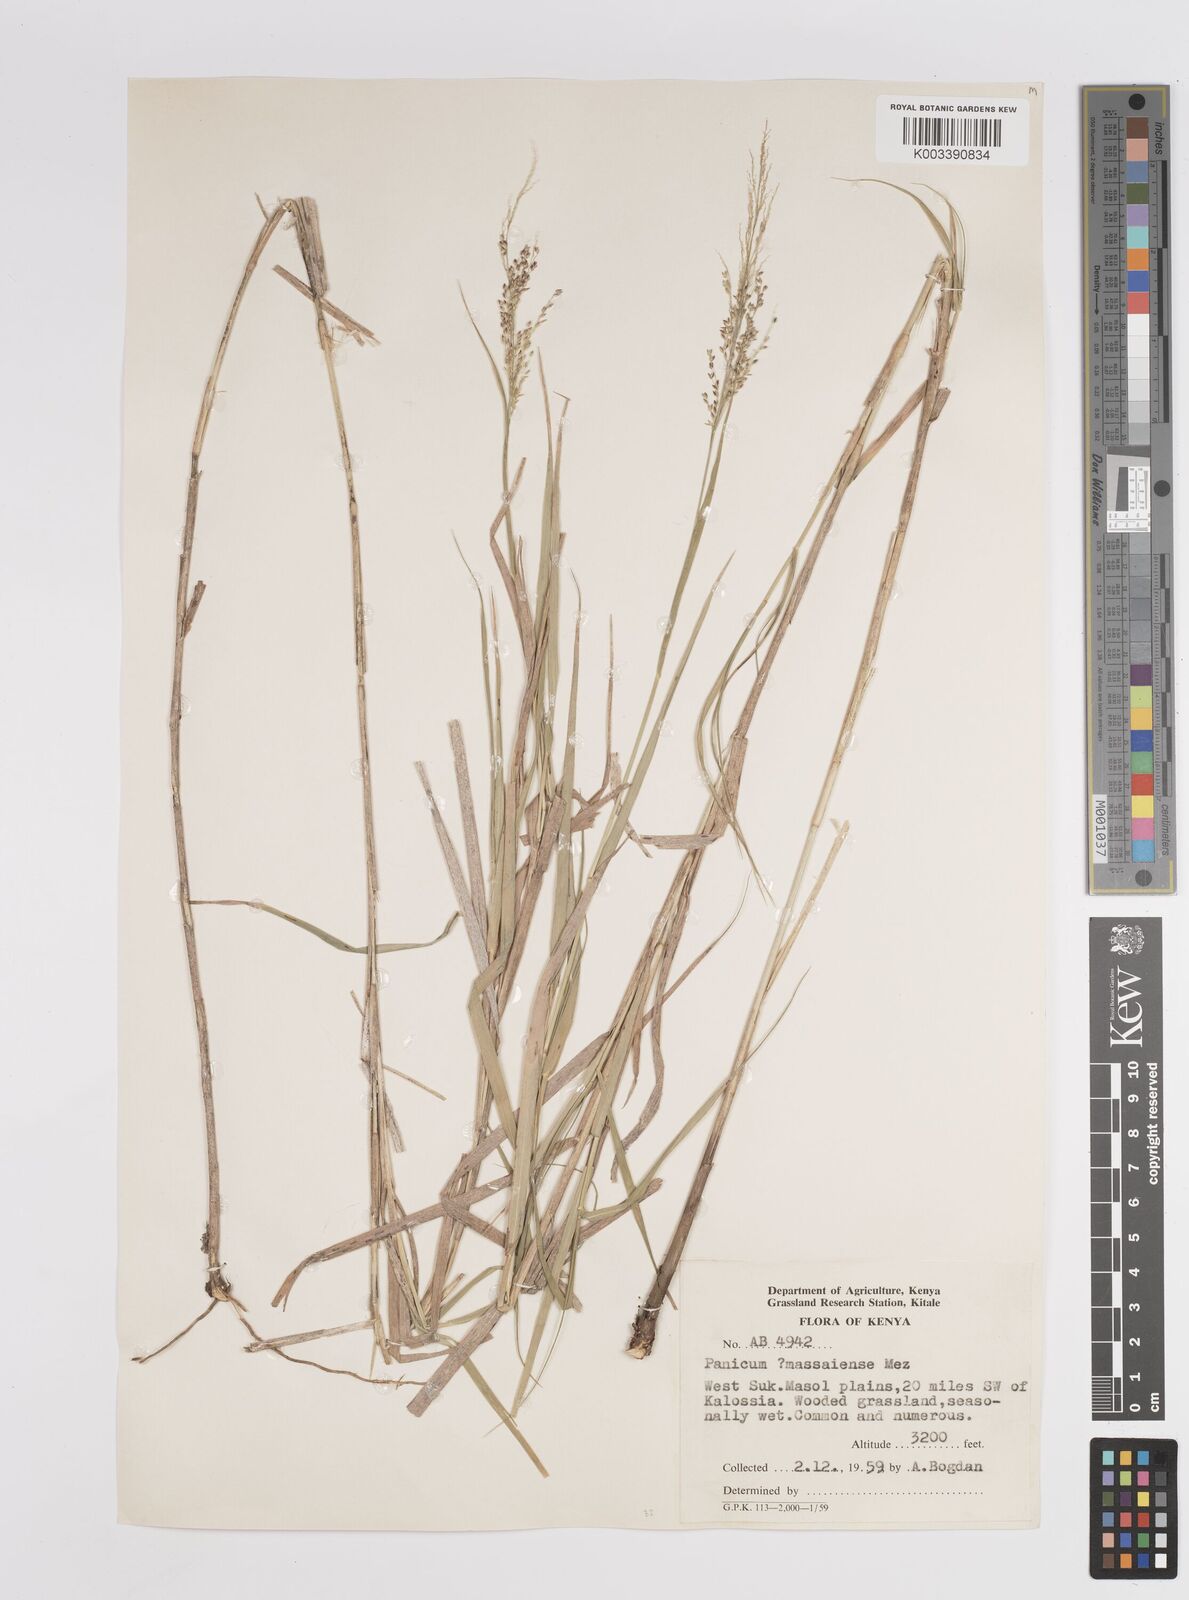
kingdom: Plantae
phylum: Tracheophyta
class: Liliopsida
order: Poales
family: Poaceae
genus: Panicum
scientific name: Panicum coloratum
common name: Kleingrass
